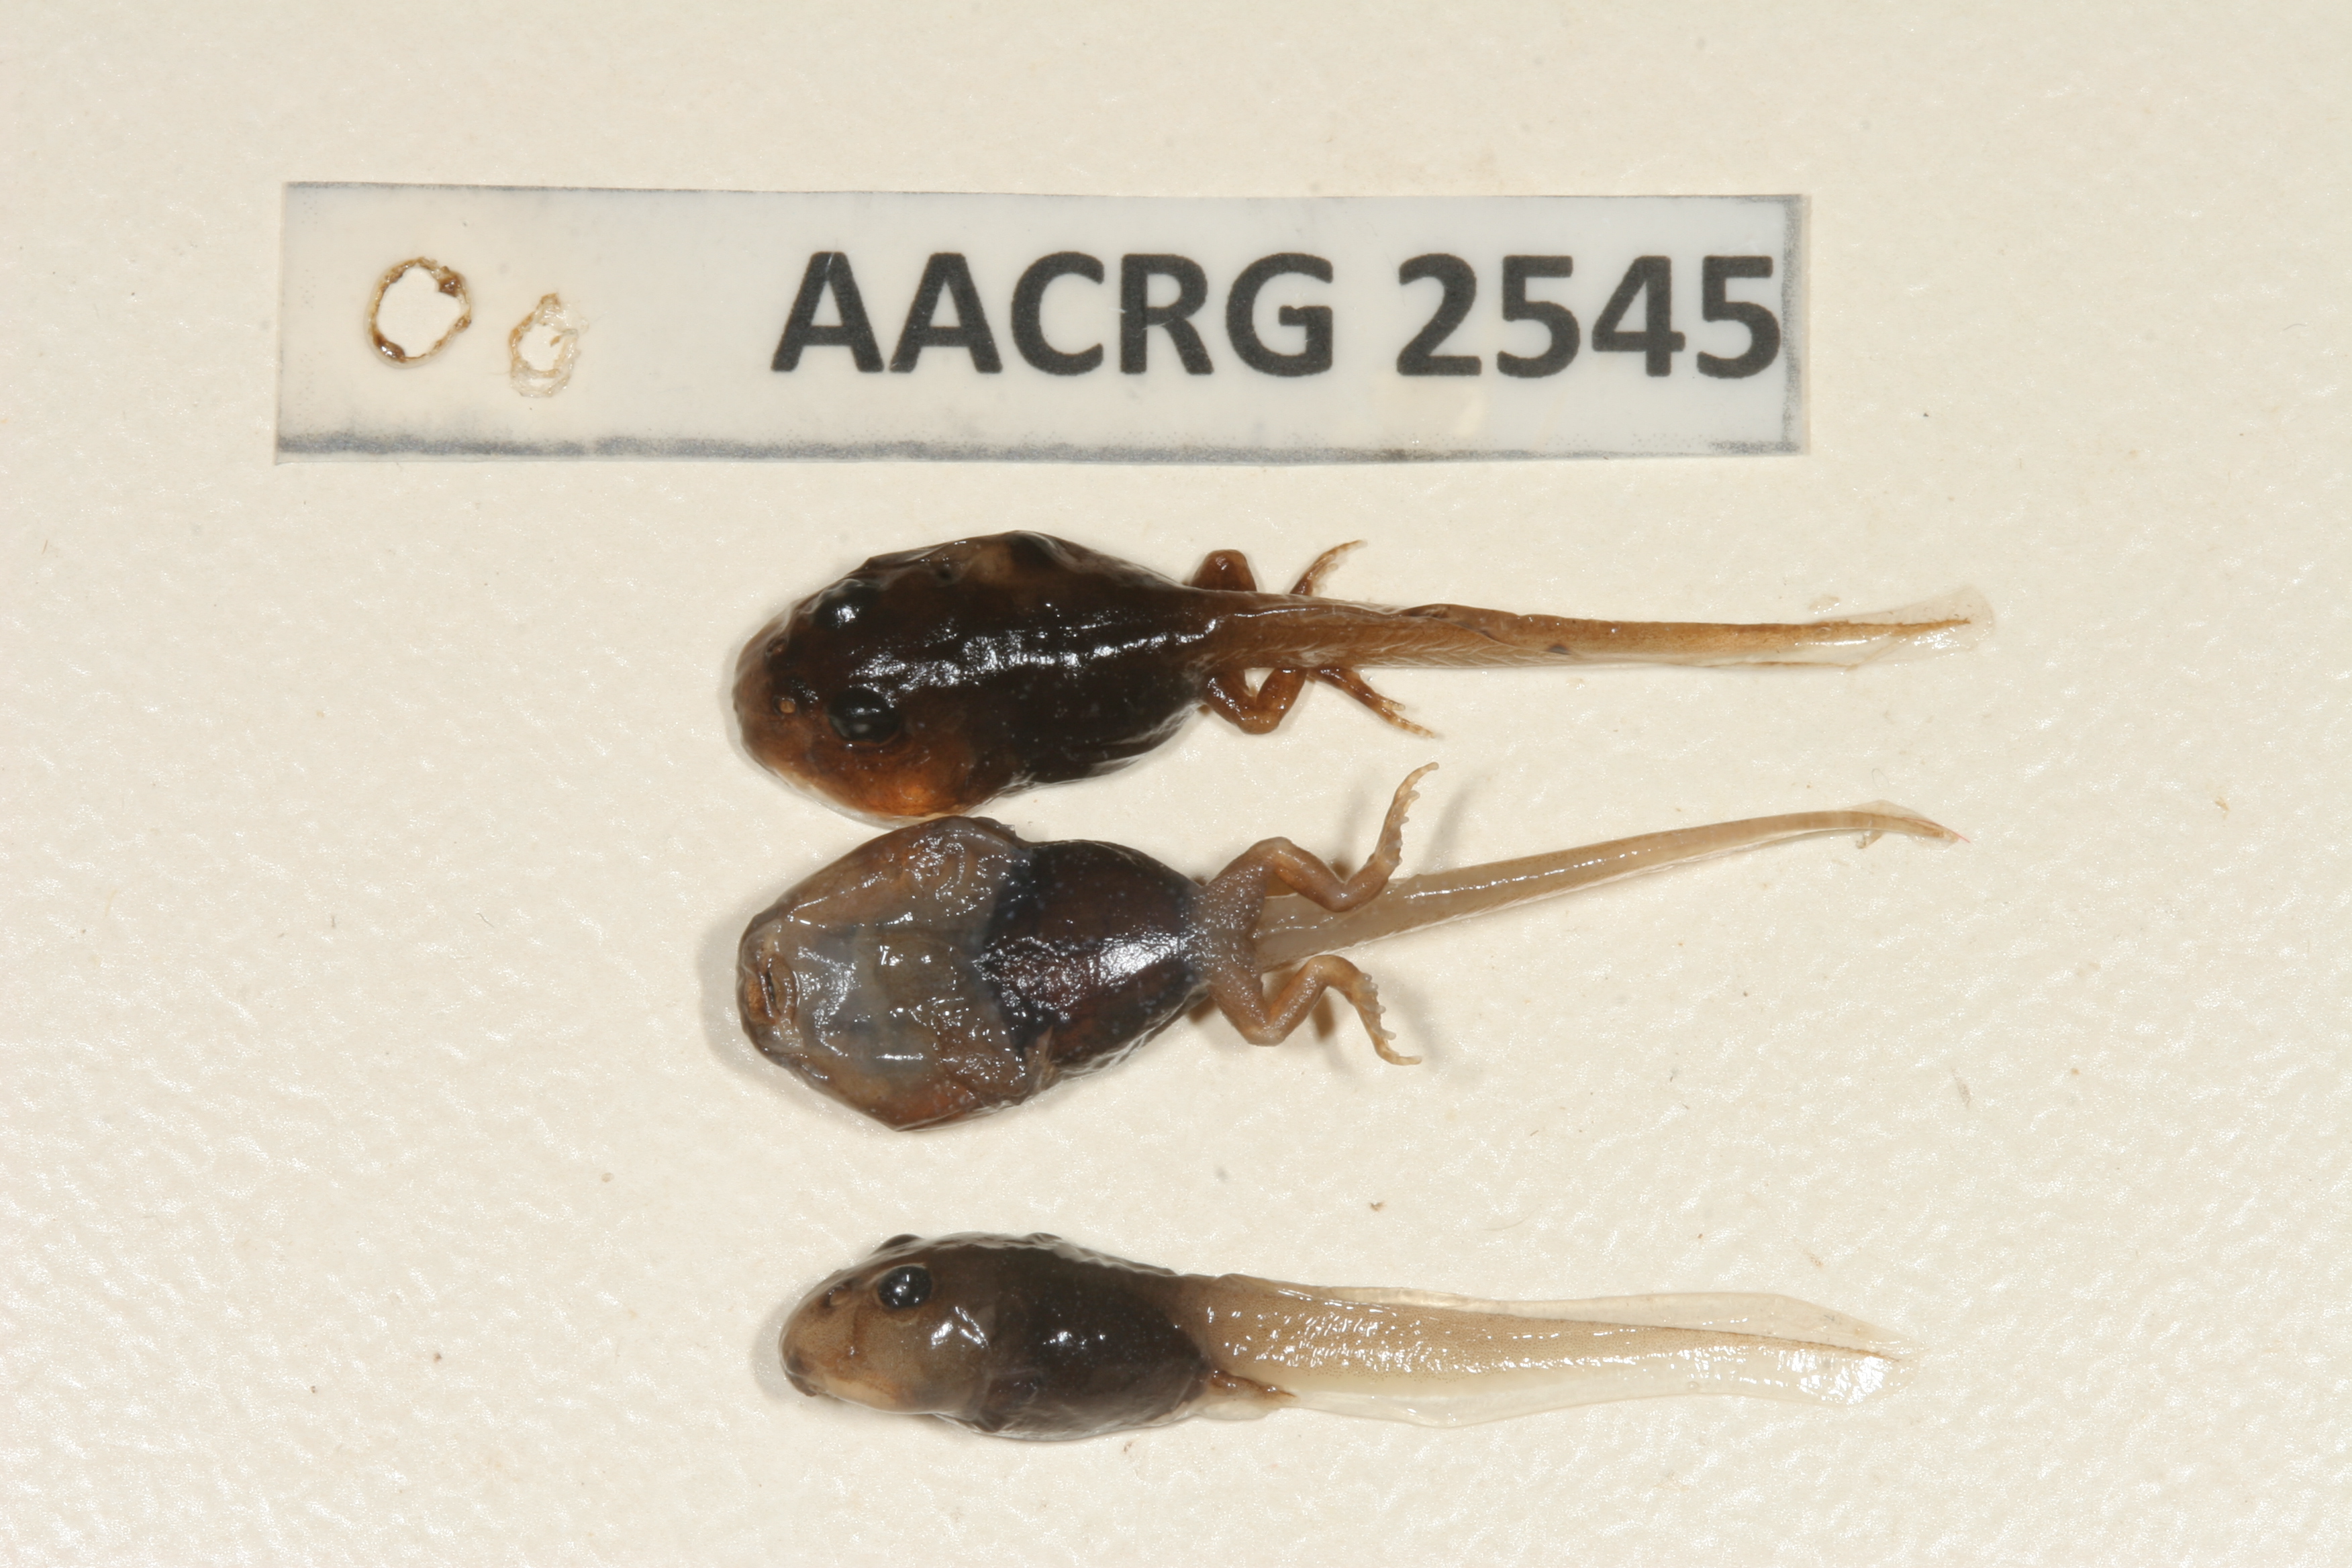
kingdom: Animalia
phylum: Chordata
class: Amphibia
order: Anura
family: Bufonidae
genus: Vandijkophrynus
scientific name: Vandijkophrynus robinsoni
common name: Paradise toad
